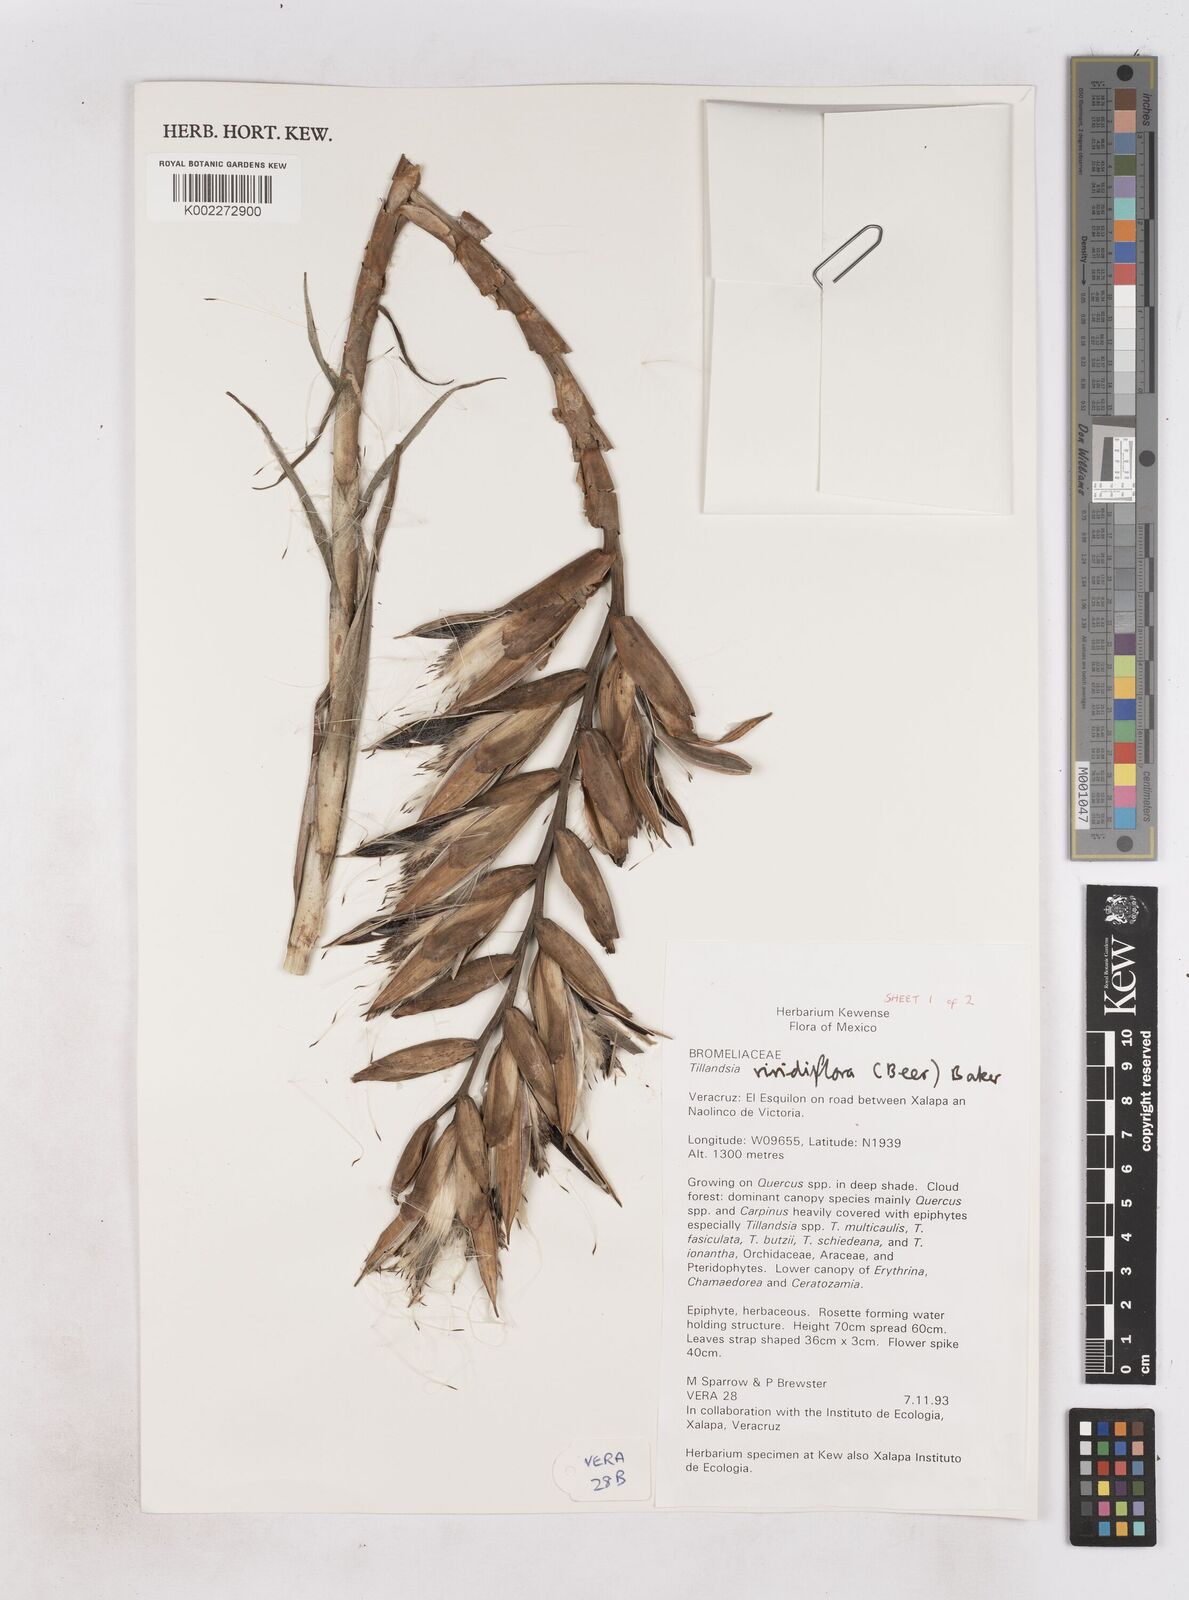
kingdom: Plantae
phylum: Tracheophyta
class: Liliopsida
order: Poales
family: Bromeliaceae
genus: Pseudalcantarea
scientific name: Pseudalcantarea viridiflora
